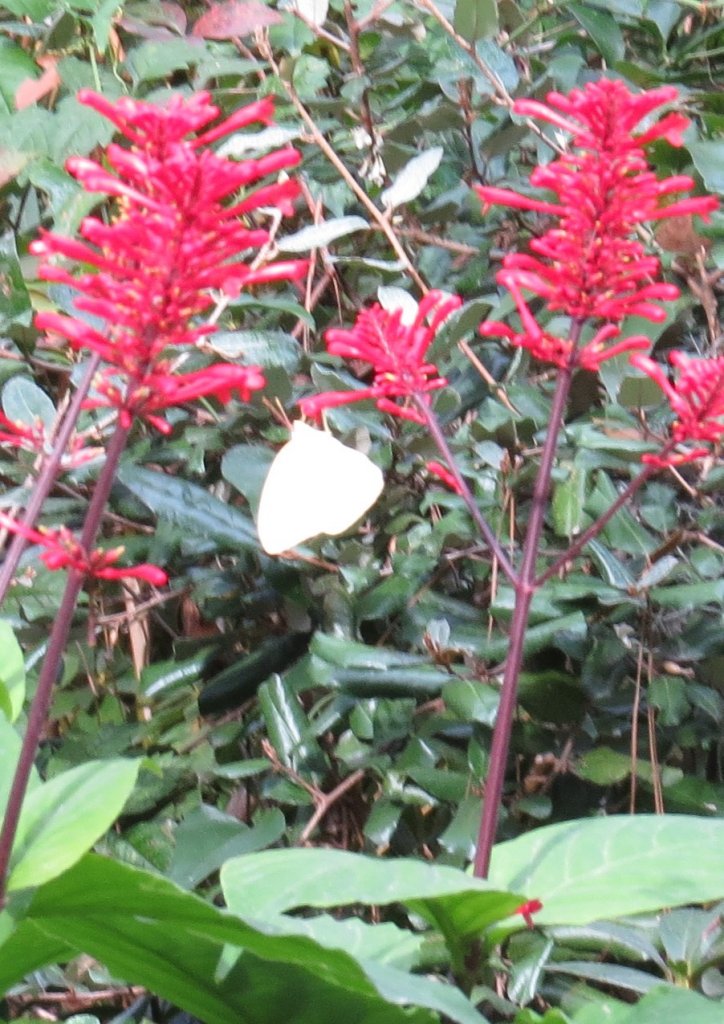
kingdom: Animalia
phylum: Arthropoda
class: Insecta
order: Lepidoptera
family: Pieridae
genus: Phoebis
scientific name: Phoebis sennae
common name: Cloudless Sulphur
